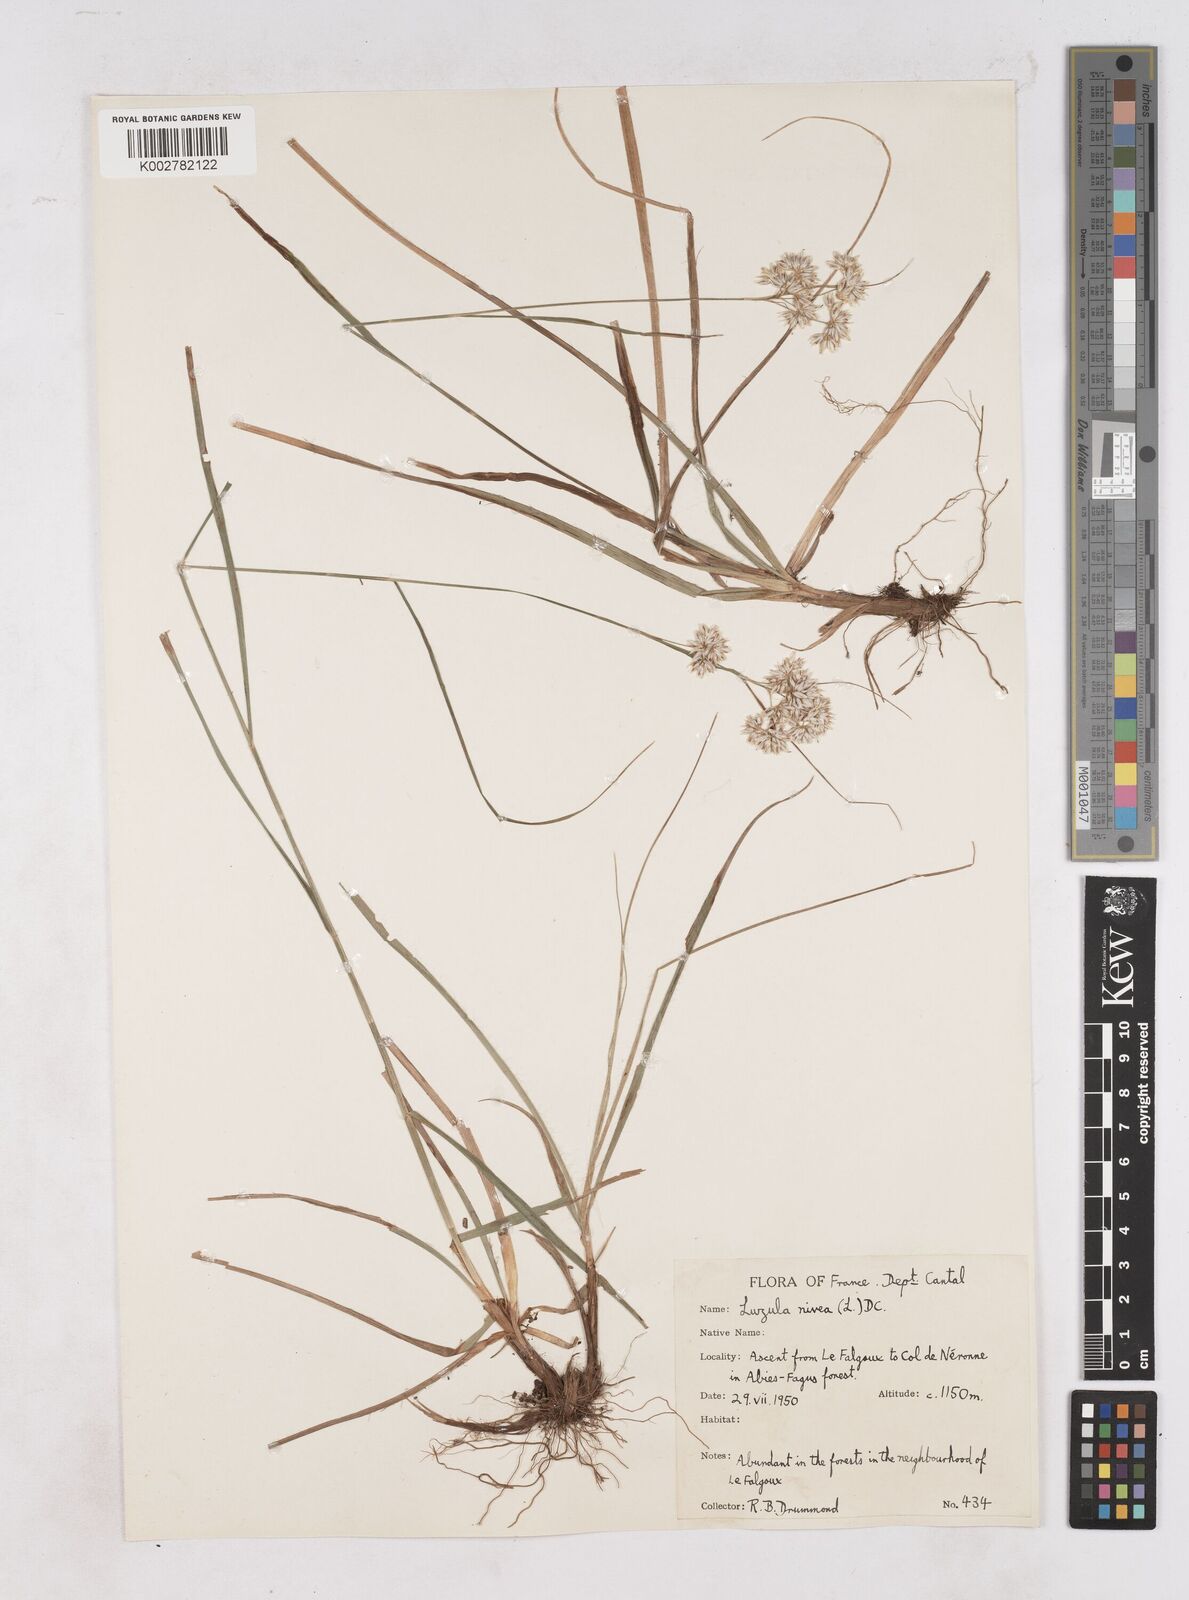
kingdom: Plantae
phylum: Tracheophyta
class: Liliopsida
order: Poales
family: Juncaceae
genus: Luzula
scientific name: Luzula nivea
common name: Snow-white wood-rush
